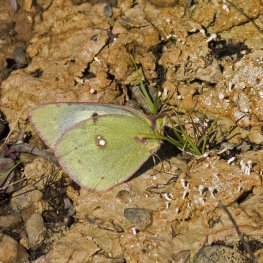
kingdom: Animalia
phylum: Arthropoda
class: Insecta
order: Lepidoptera
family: Pieridae
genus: Colias
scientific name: Colias philodice
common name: Clouded Sulphur
